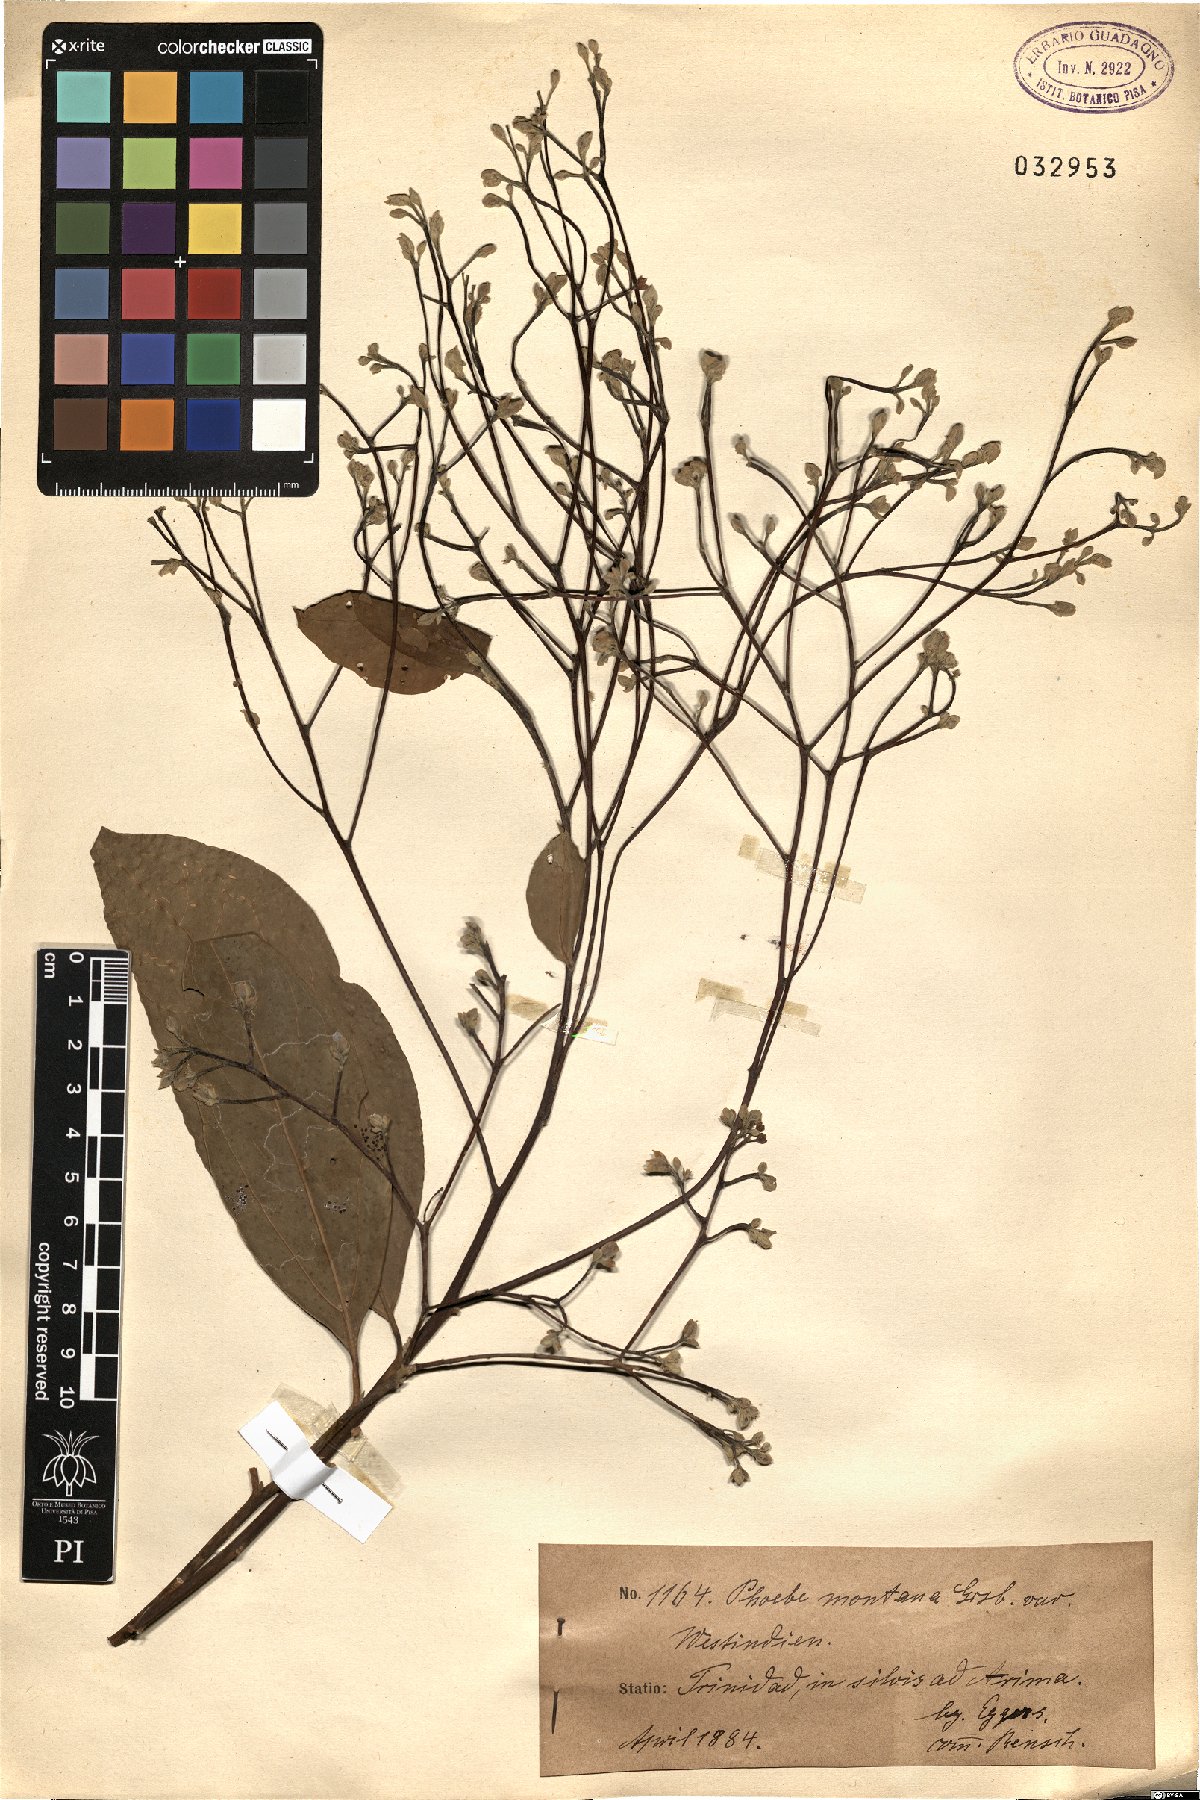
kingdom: Plantae
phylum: Tracheophyta
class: Magnoliopsida
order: Laurales
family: Lauraceae
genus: Aiouea
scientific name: Aiouea montana
